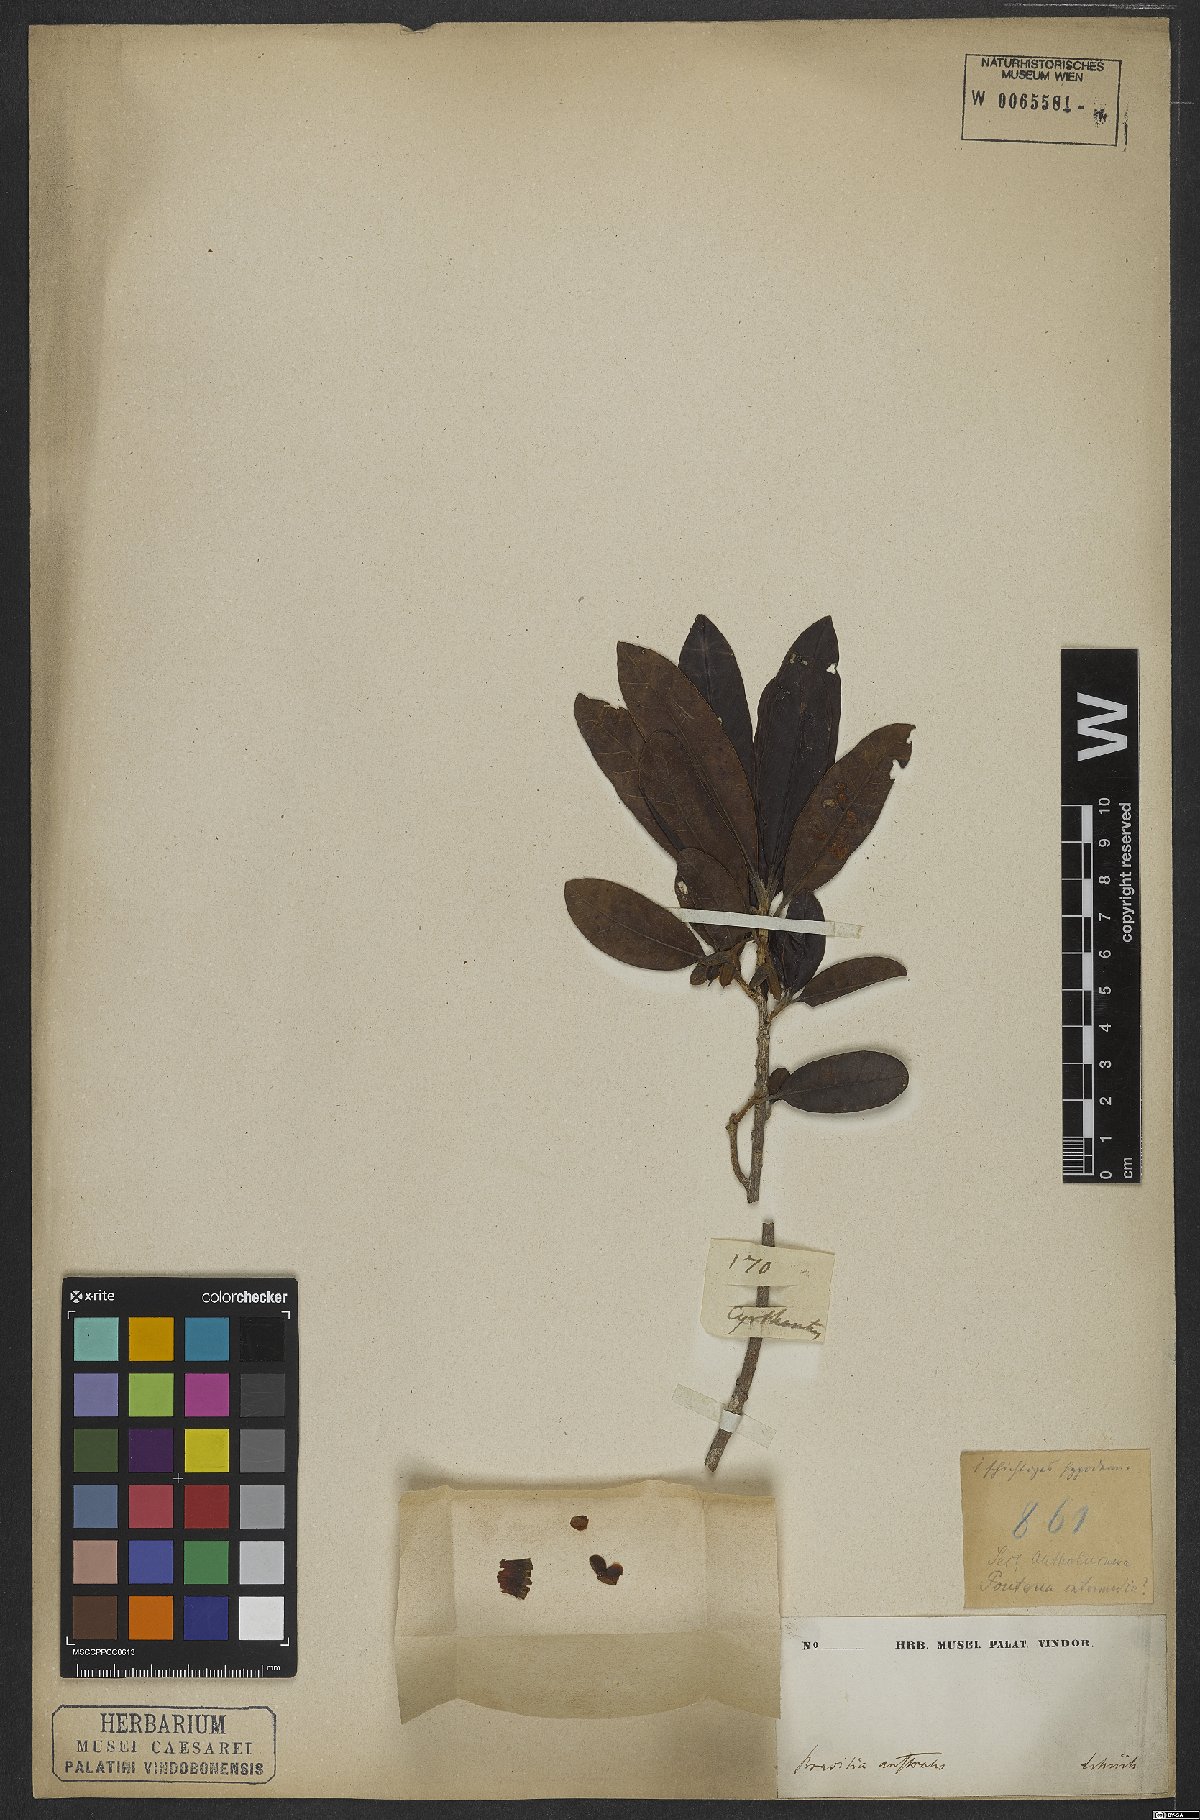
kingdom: Plantae
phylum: Tracheophyta
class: Magnoliopsida
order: Ericales
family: Sapotaceae
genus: Pouteria
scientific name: Pouteria
